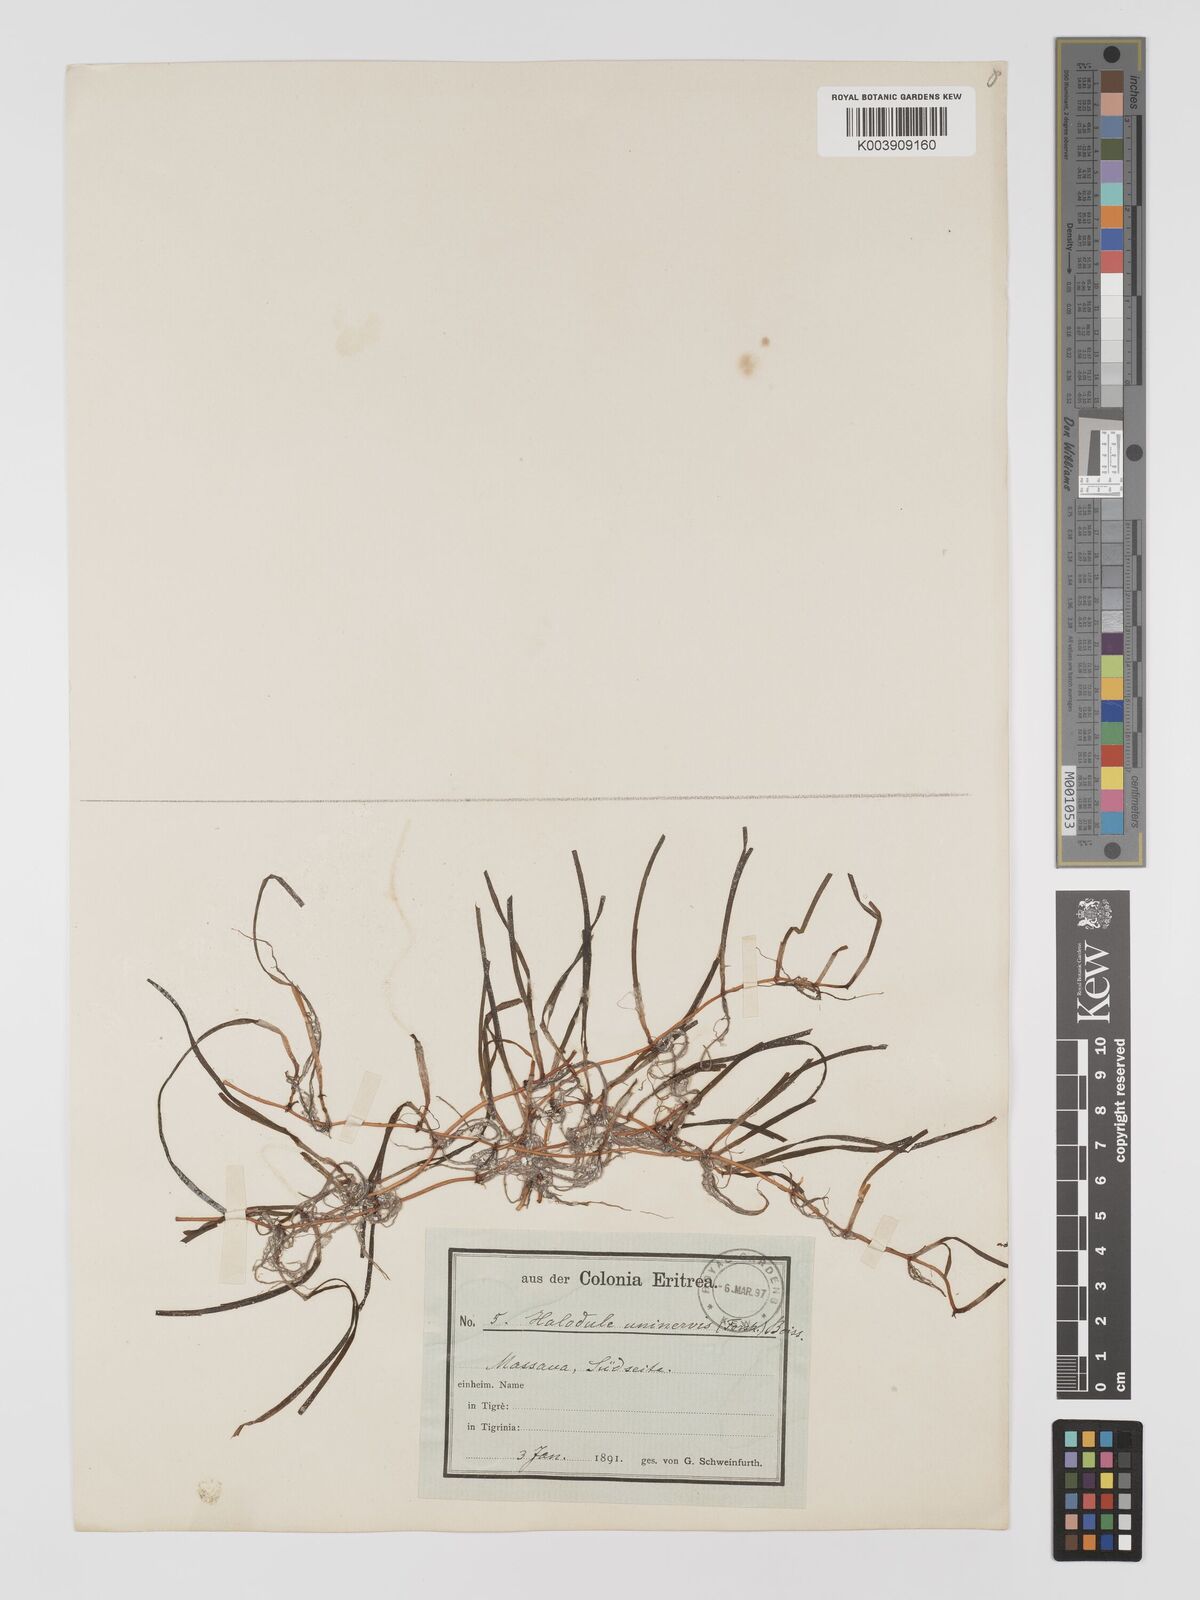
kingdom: Plantae
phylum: Tracheophyta
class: Liliopsida
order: Alismatales
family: Cymodoceaceae
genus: Halodule
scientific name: Halodule uninervis
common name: Narrowleaf seagrass
